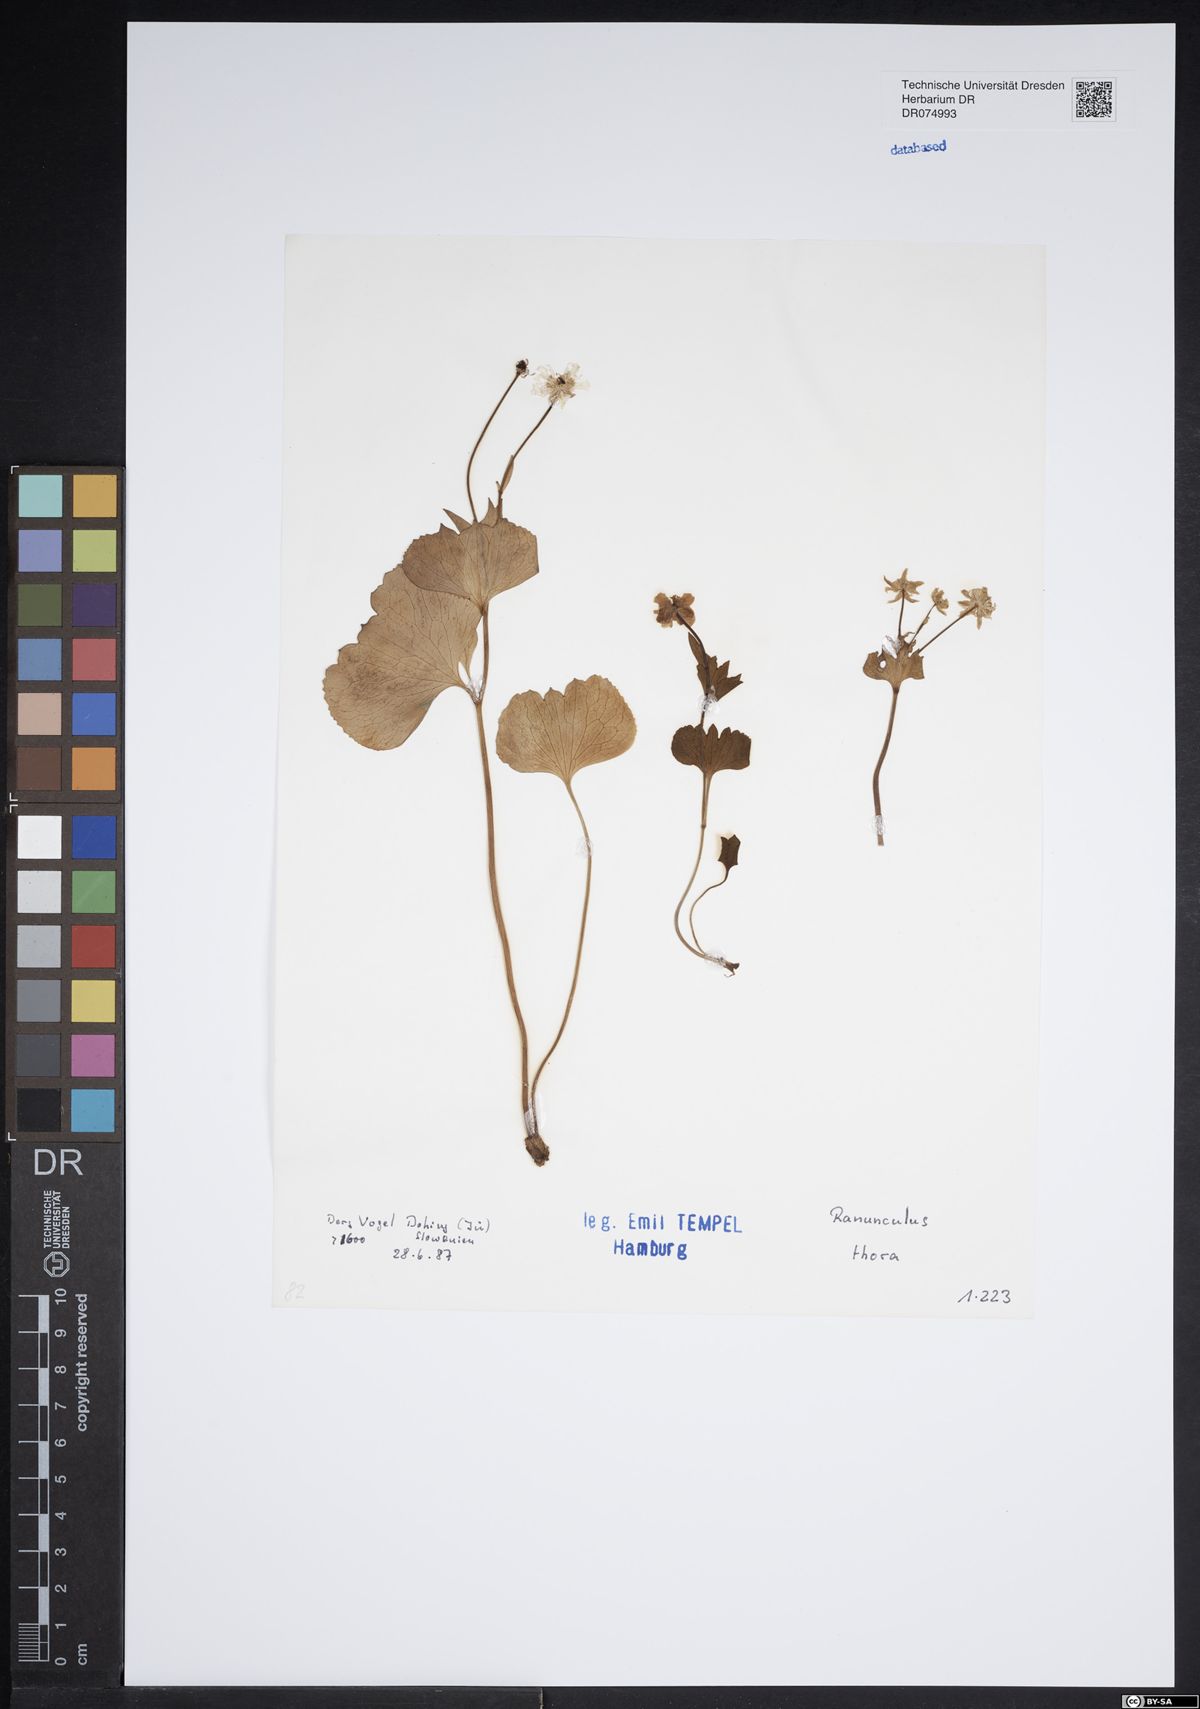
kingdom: Plantae
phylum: Tracheophyta
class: Magnoliopsida
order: Ranunculales
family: Ranunculaceae
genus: Ranunculus
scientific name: Ranunculus thora
